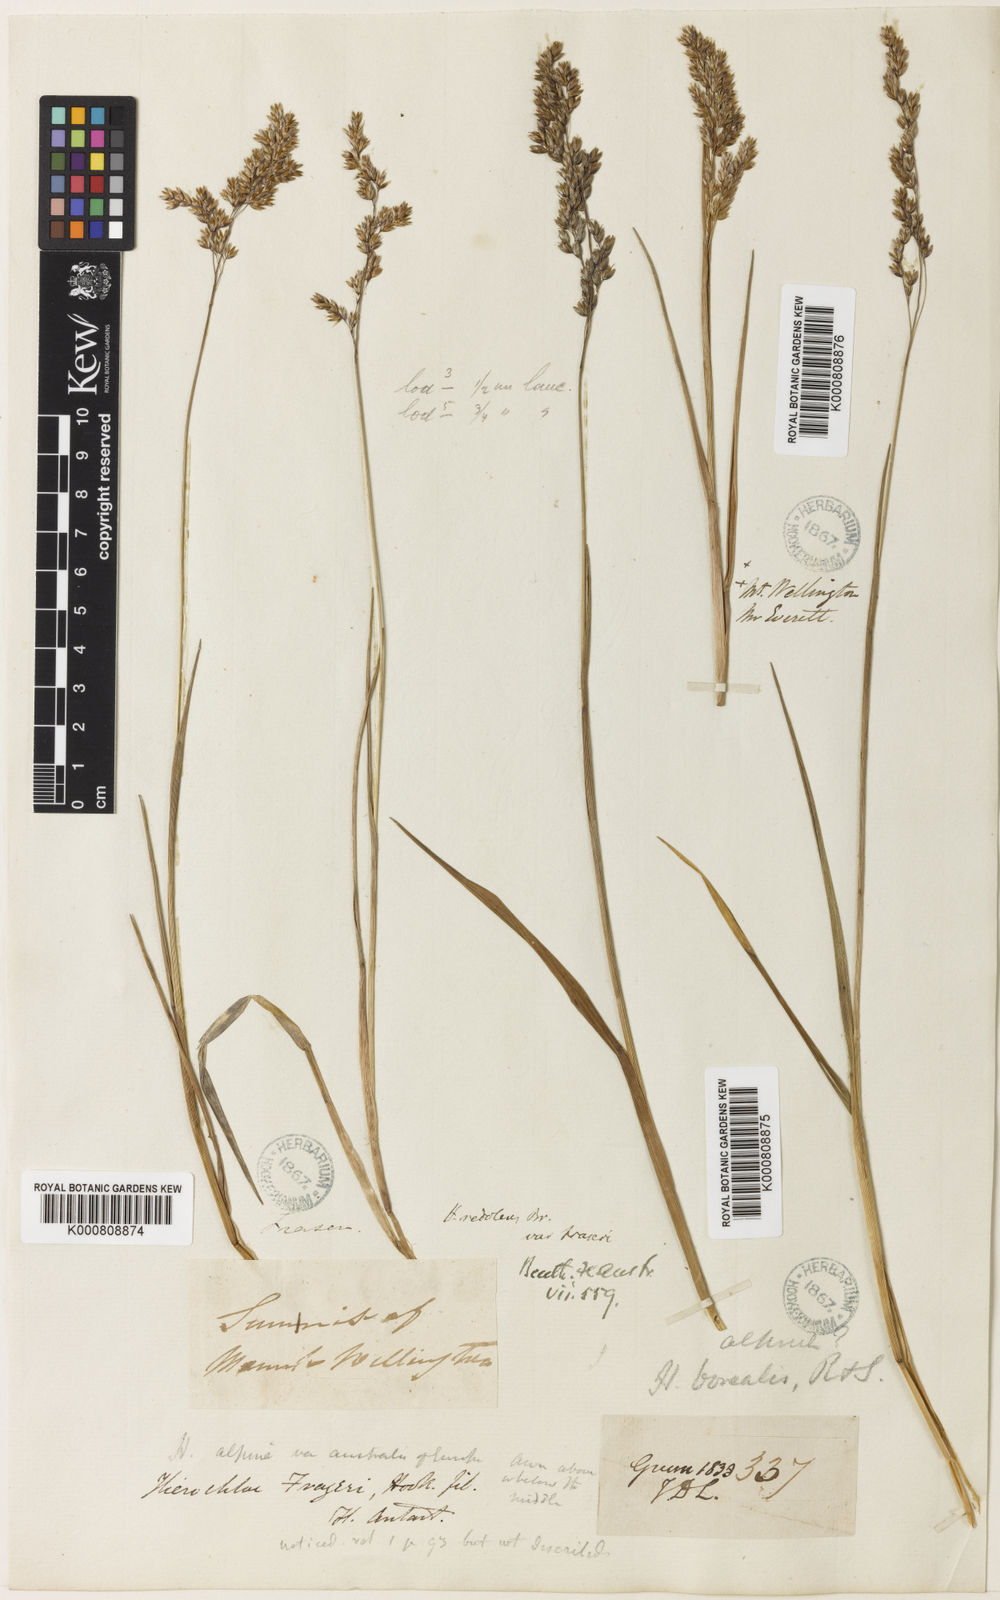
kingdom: Plantae
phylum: Tracheophyta
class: Liliopsida
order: Poales
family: Poaceae
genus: Hierochloe
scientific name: Hierochloe
